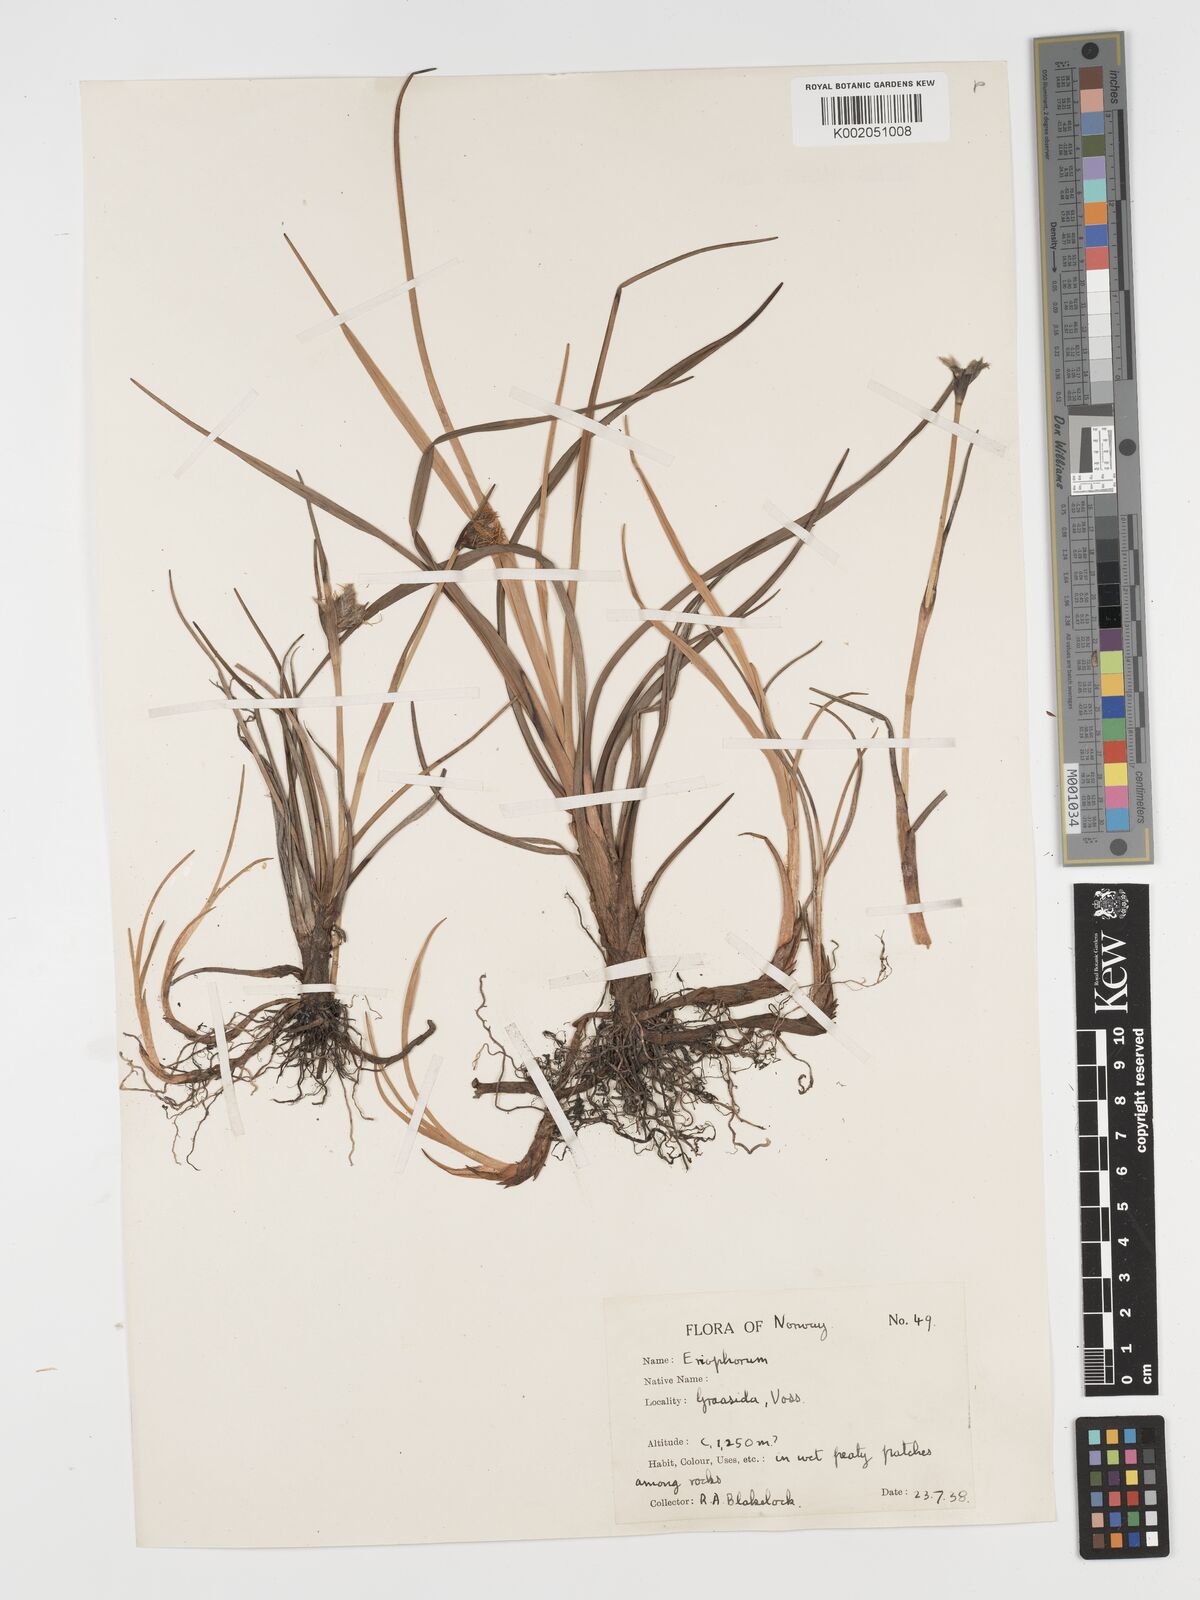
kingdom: Plantae
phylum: Tracheophyta
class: Liliopsida
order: Poales
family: Cyperaceae
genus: Eriophorum
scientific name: Eriophorum angustifolium
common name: Common cottongrass
